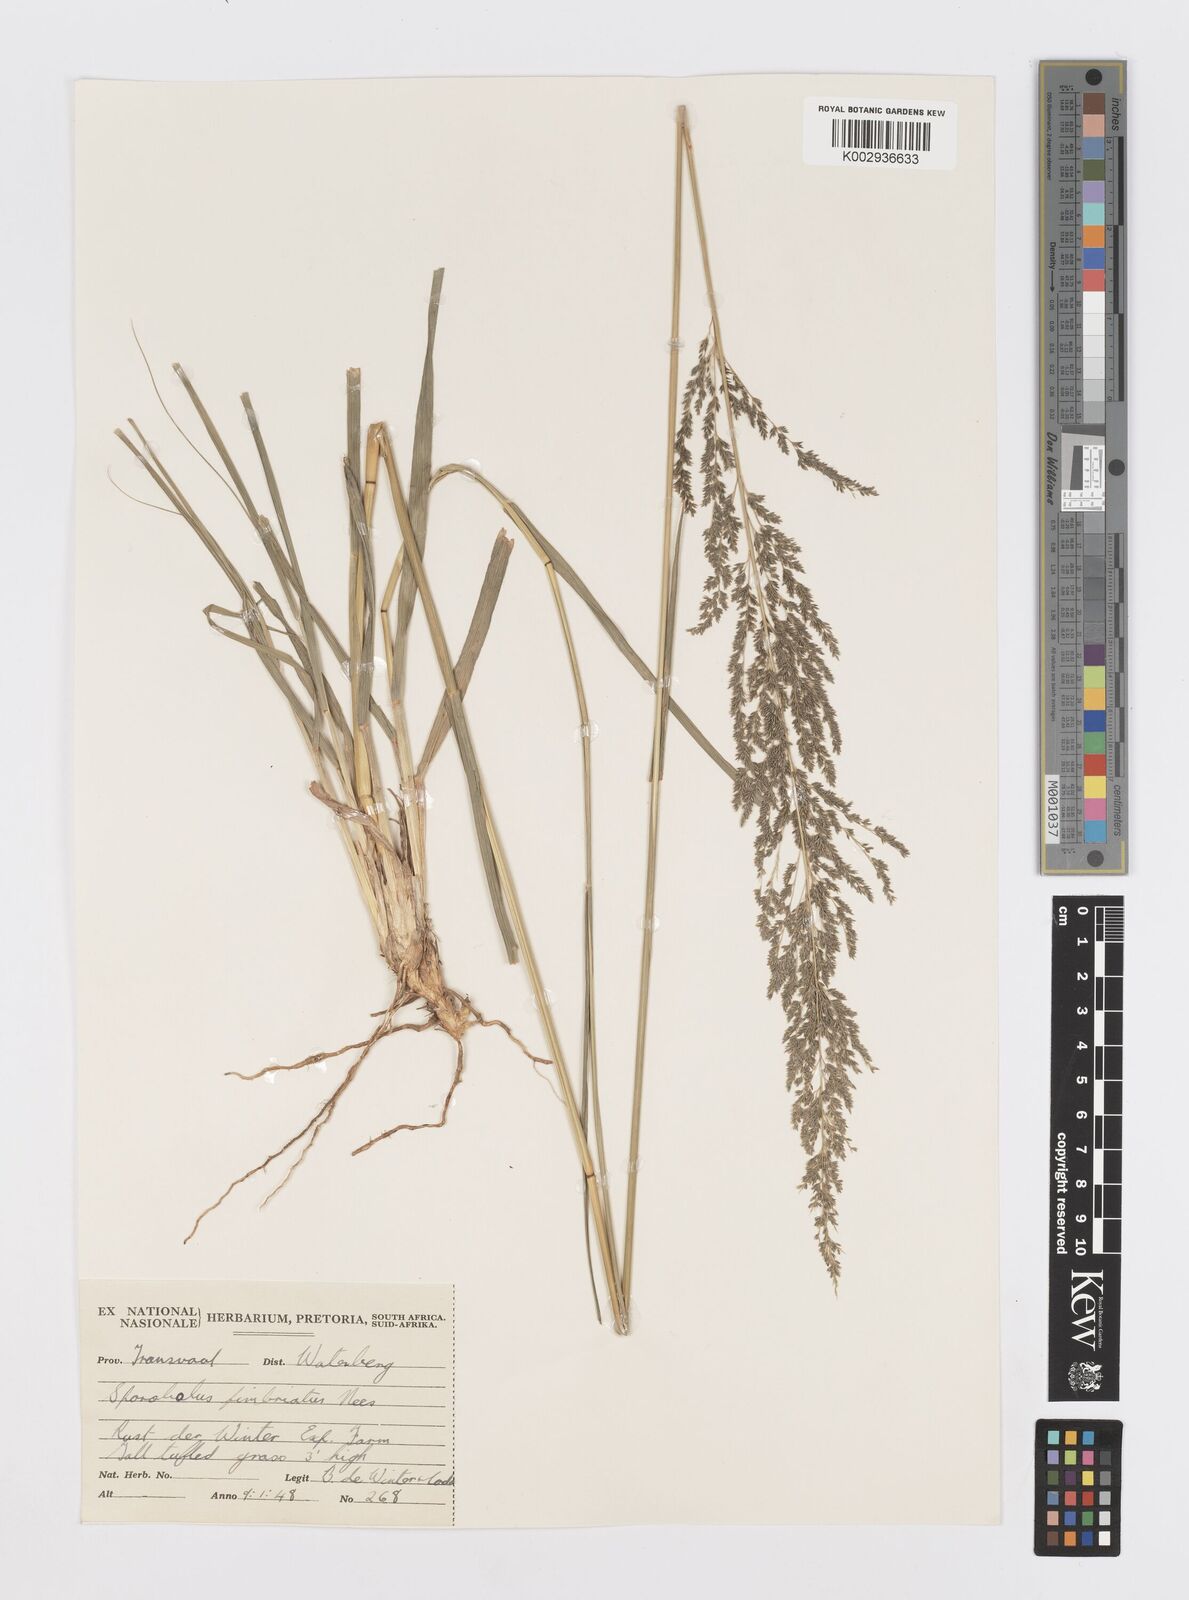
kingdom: Plantae
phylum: Tracheophyta
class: Liliopsida
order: Poales
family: Poaceae
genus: Sporobolus
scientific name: Sporobolus fimbriatus
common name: Fringed dropseed
